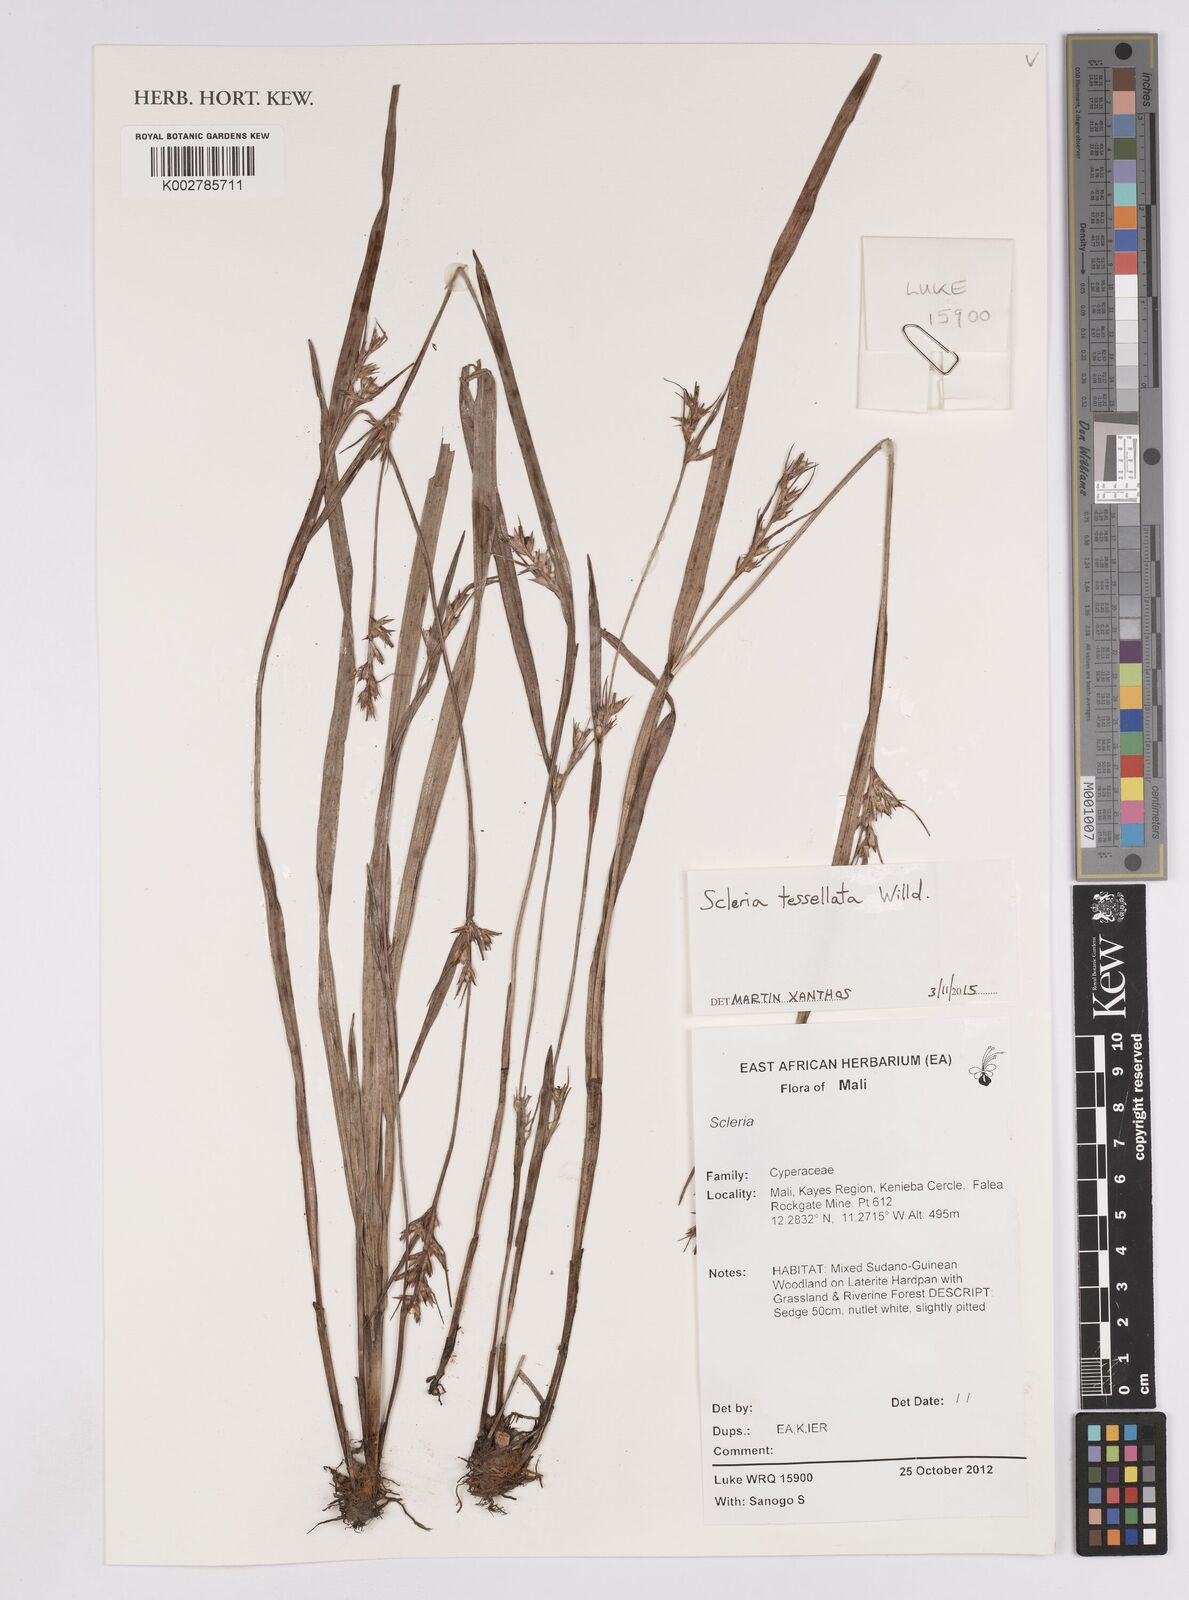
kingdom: Plantae
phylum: Tracheophyta
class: Liliopsida
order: Poales
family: Cyperaceae
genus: Scleria
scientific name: Scleria tessellata
